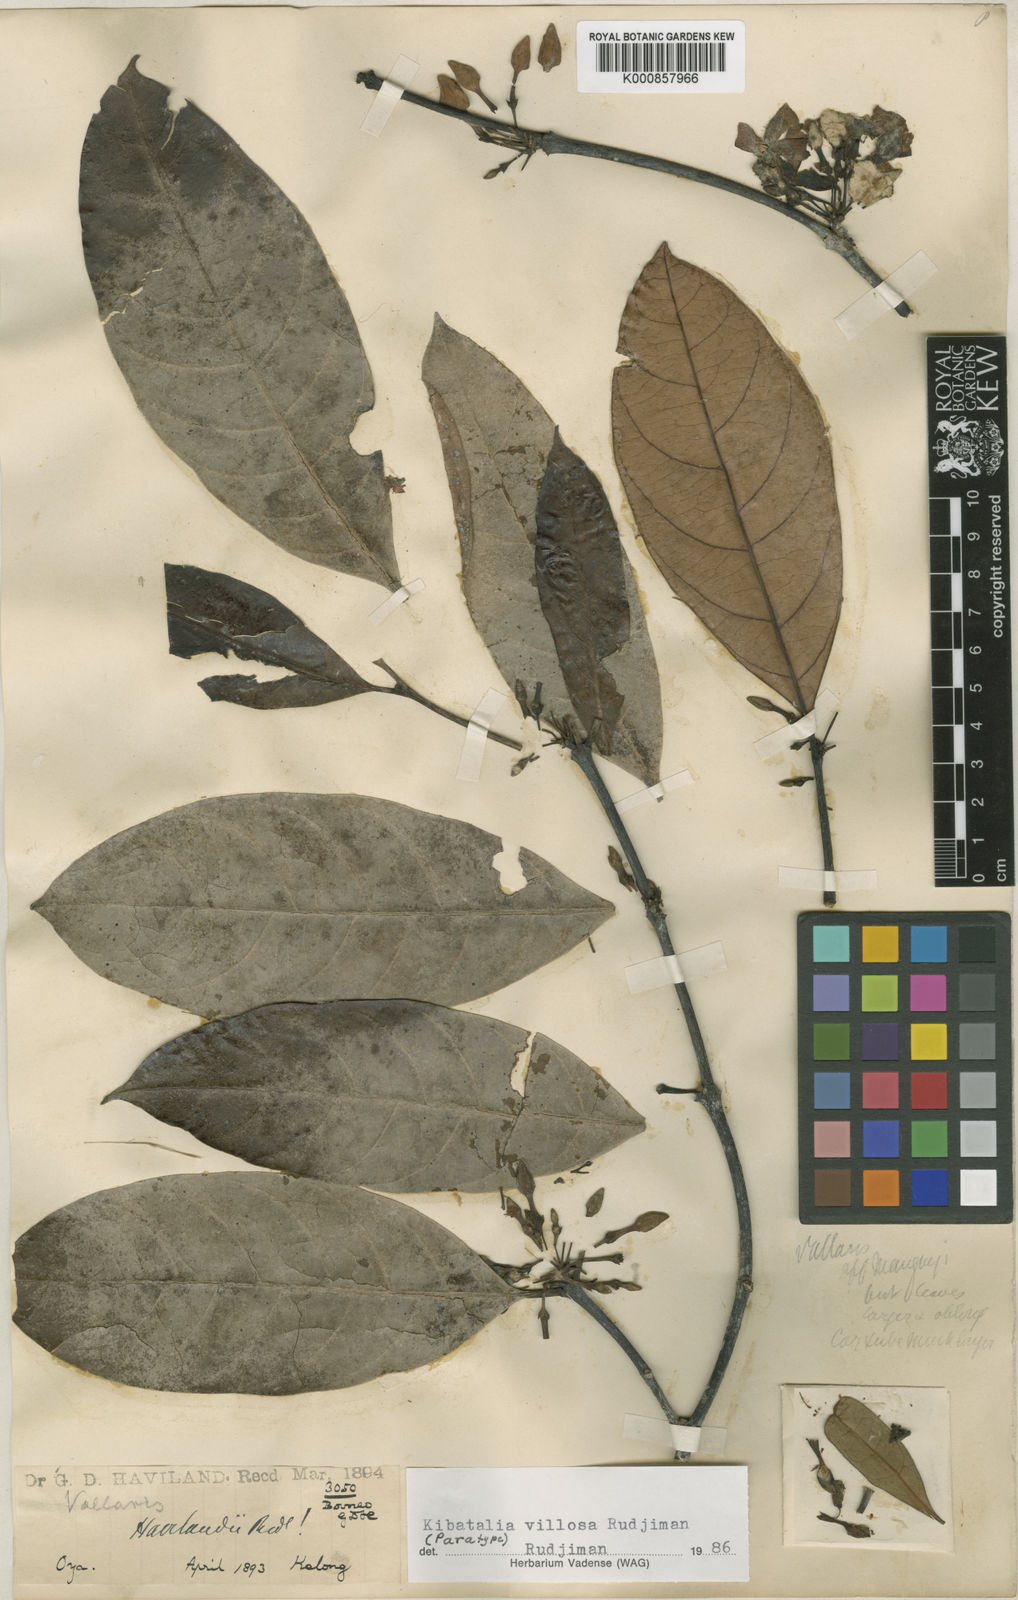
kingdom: Plantae
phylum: Tracheophyta
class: Magnoliopsida
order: Gentianales
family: Apocynaceae
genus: Kibatalia
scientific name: Kibatalia villosa
